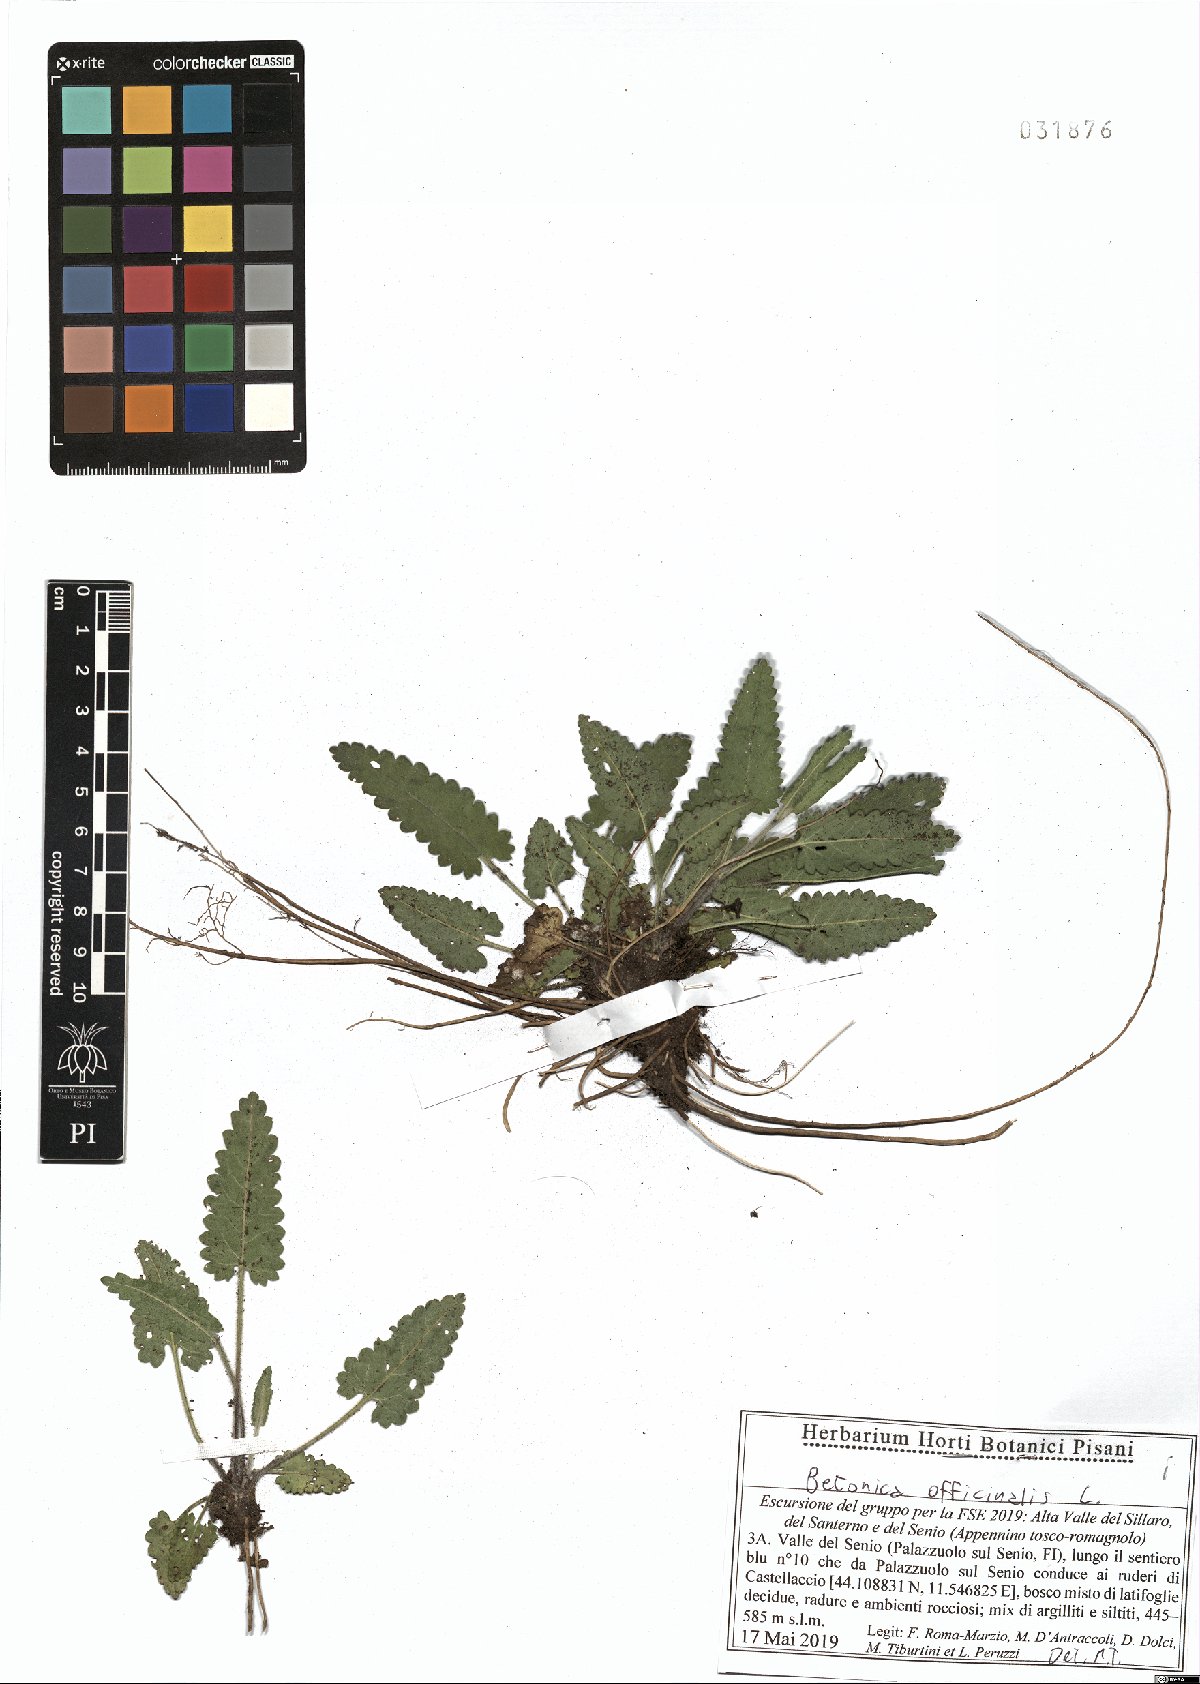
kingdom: Plantae
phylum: Tracheophyta
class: Magnoliopsida
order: Lamiales
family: Lamiaceae
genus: Betonica
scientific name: Betonica officinalis
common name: Bishop's-wort
